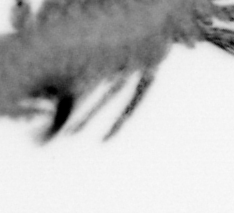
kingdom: Animalia
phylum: Annelida
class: Polychaeta
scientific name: Polychaeta
